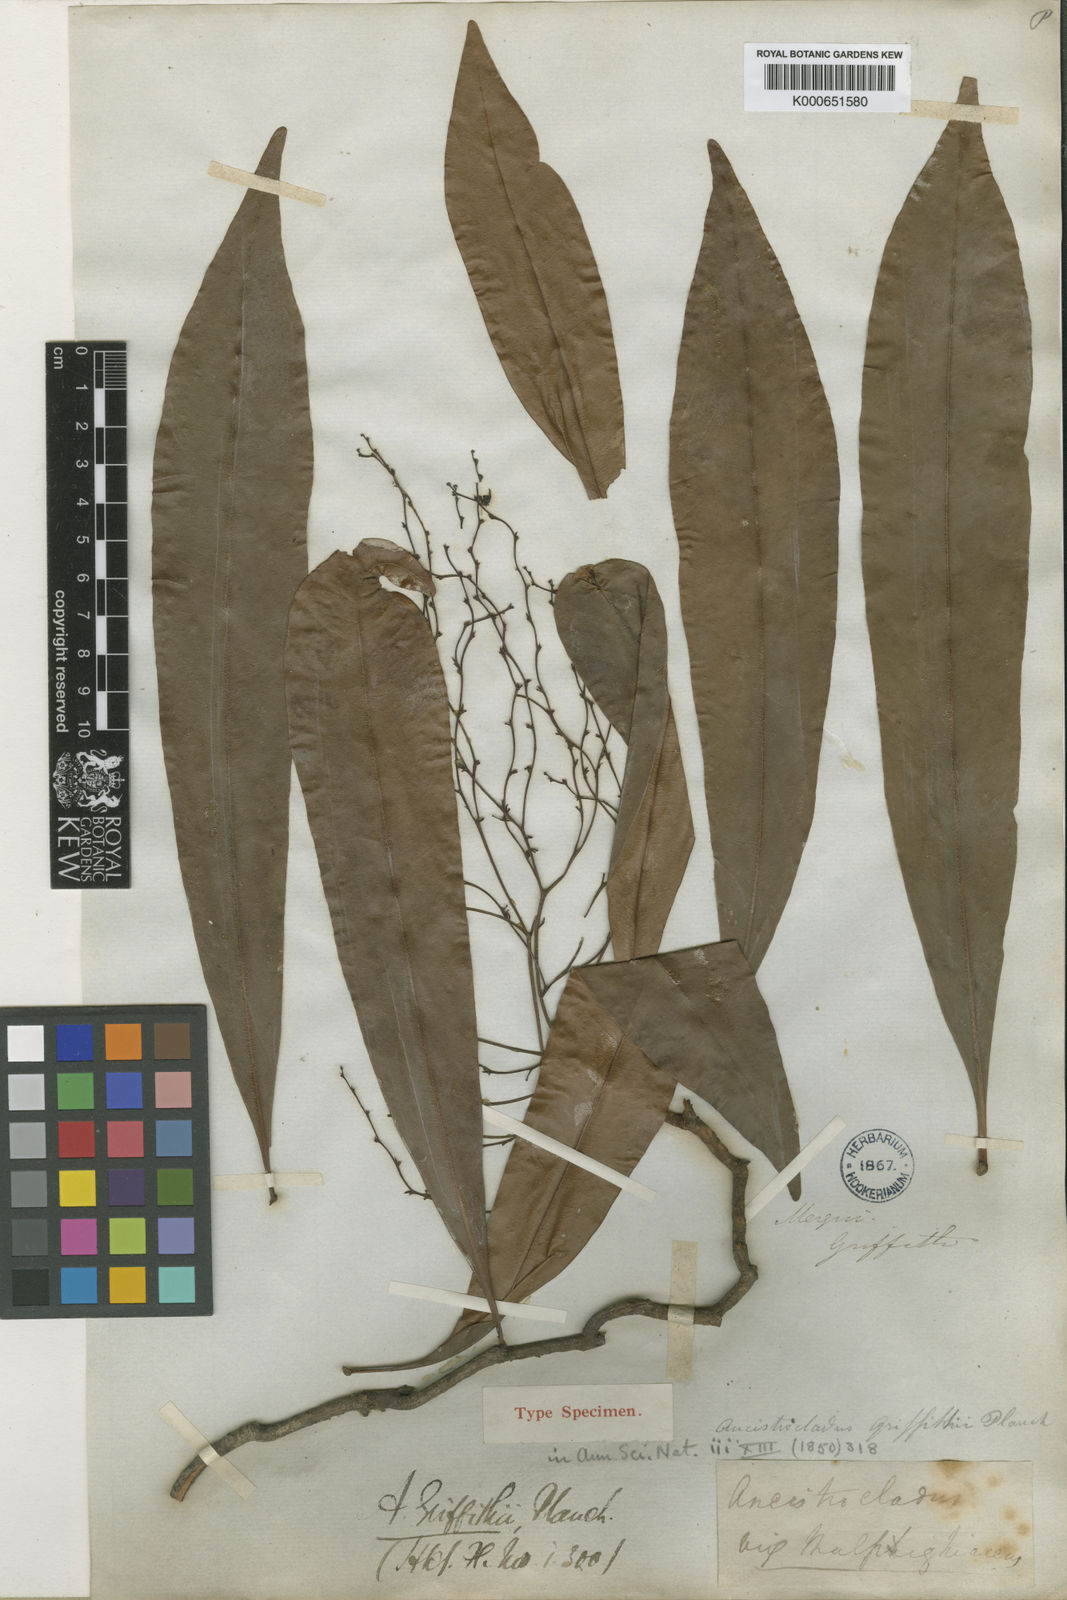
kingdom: Plantae
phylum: Tracheophyta
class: Magnoliopsida
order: Caryophyllales
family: Ancistrocladaceae
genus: Ancistrocladus
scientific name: Ancistrocladus griffithii
